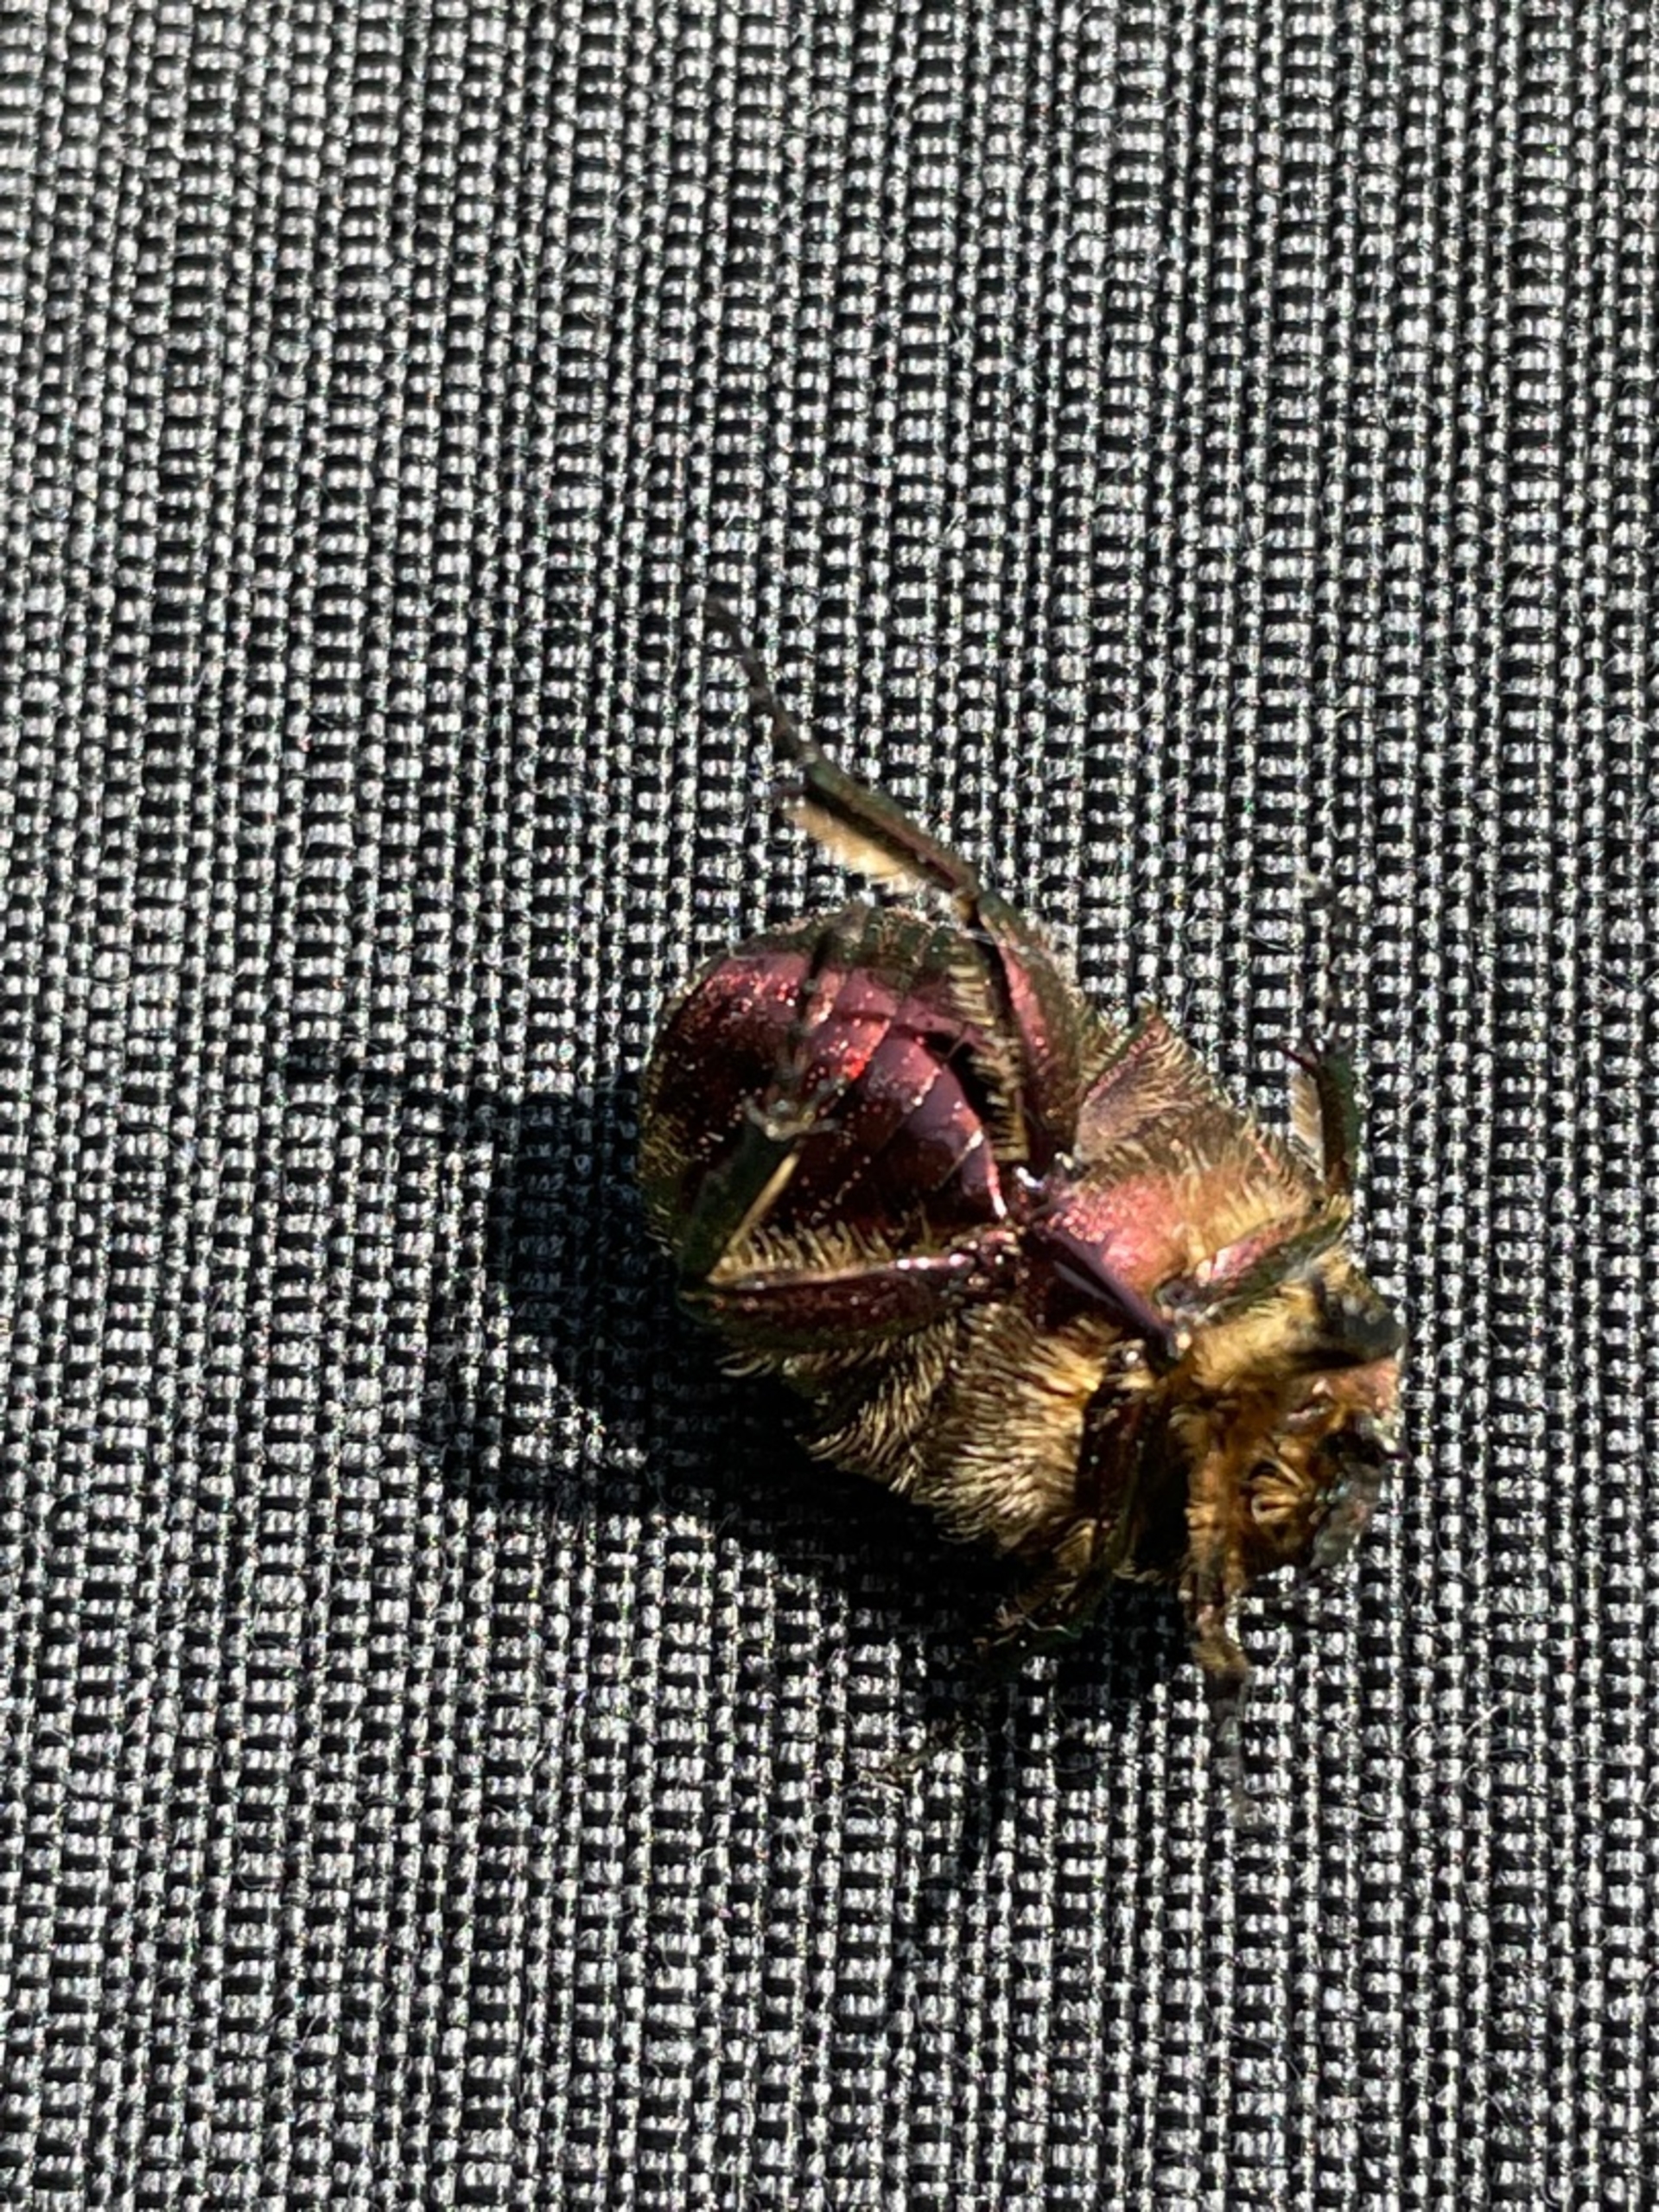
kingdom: Animalia
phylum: Arthropoda
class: Insecta
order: Coleoptera
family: Scarabaeidae
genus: Cetonia
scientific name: Cetonia aurata
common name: Grøn guldbasse
